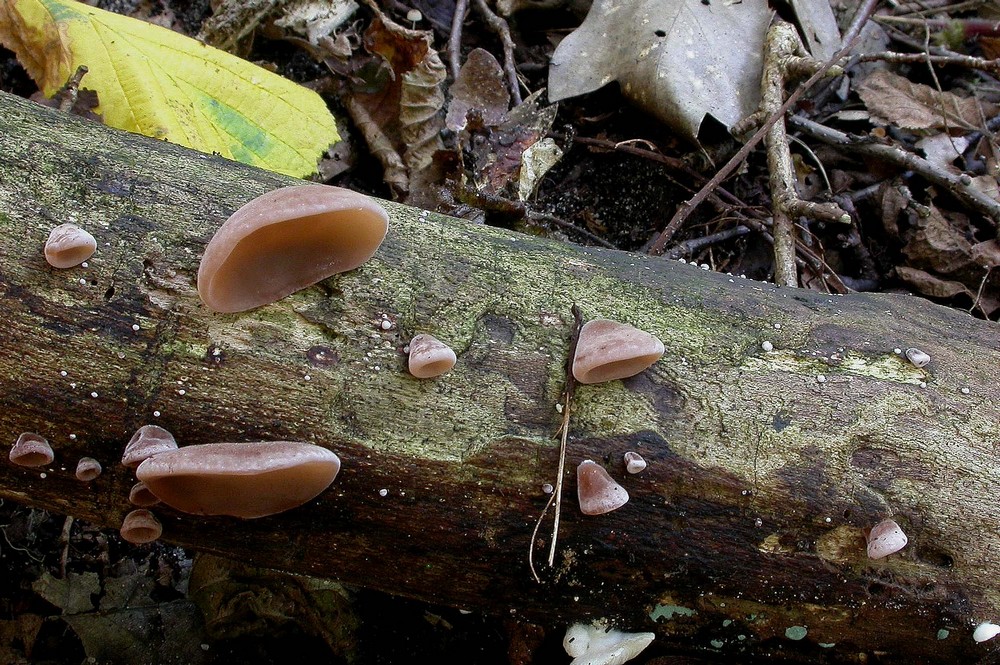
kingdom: Fungi
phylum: Basidiomycota
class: Agaricomycetes
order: Auriculariales
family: Auriculariaceae
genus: Auricularia
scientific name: Auricularia auricula-judae
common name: almindelig judasøre
